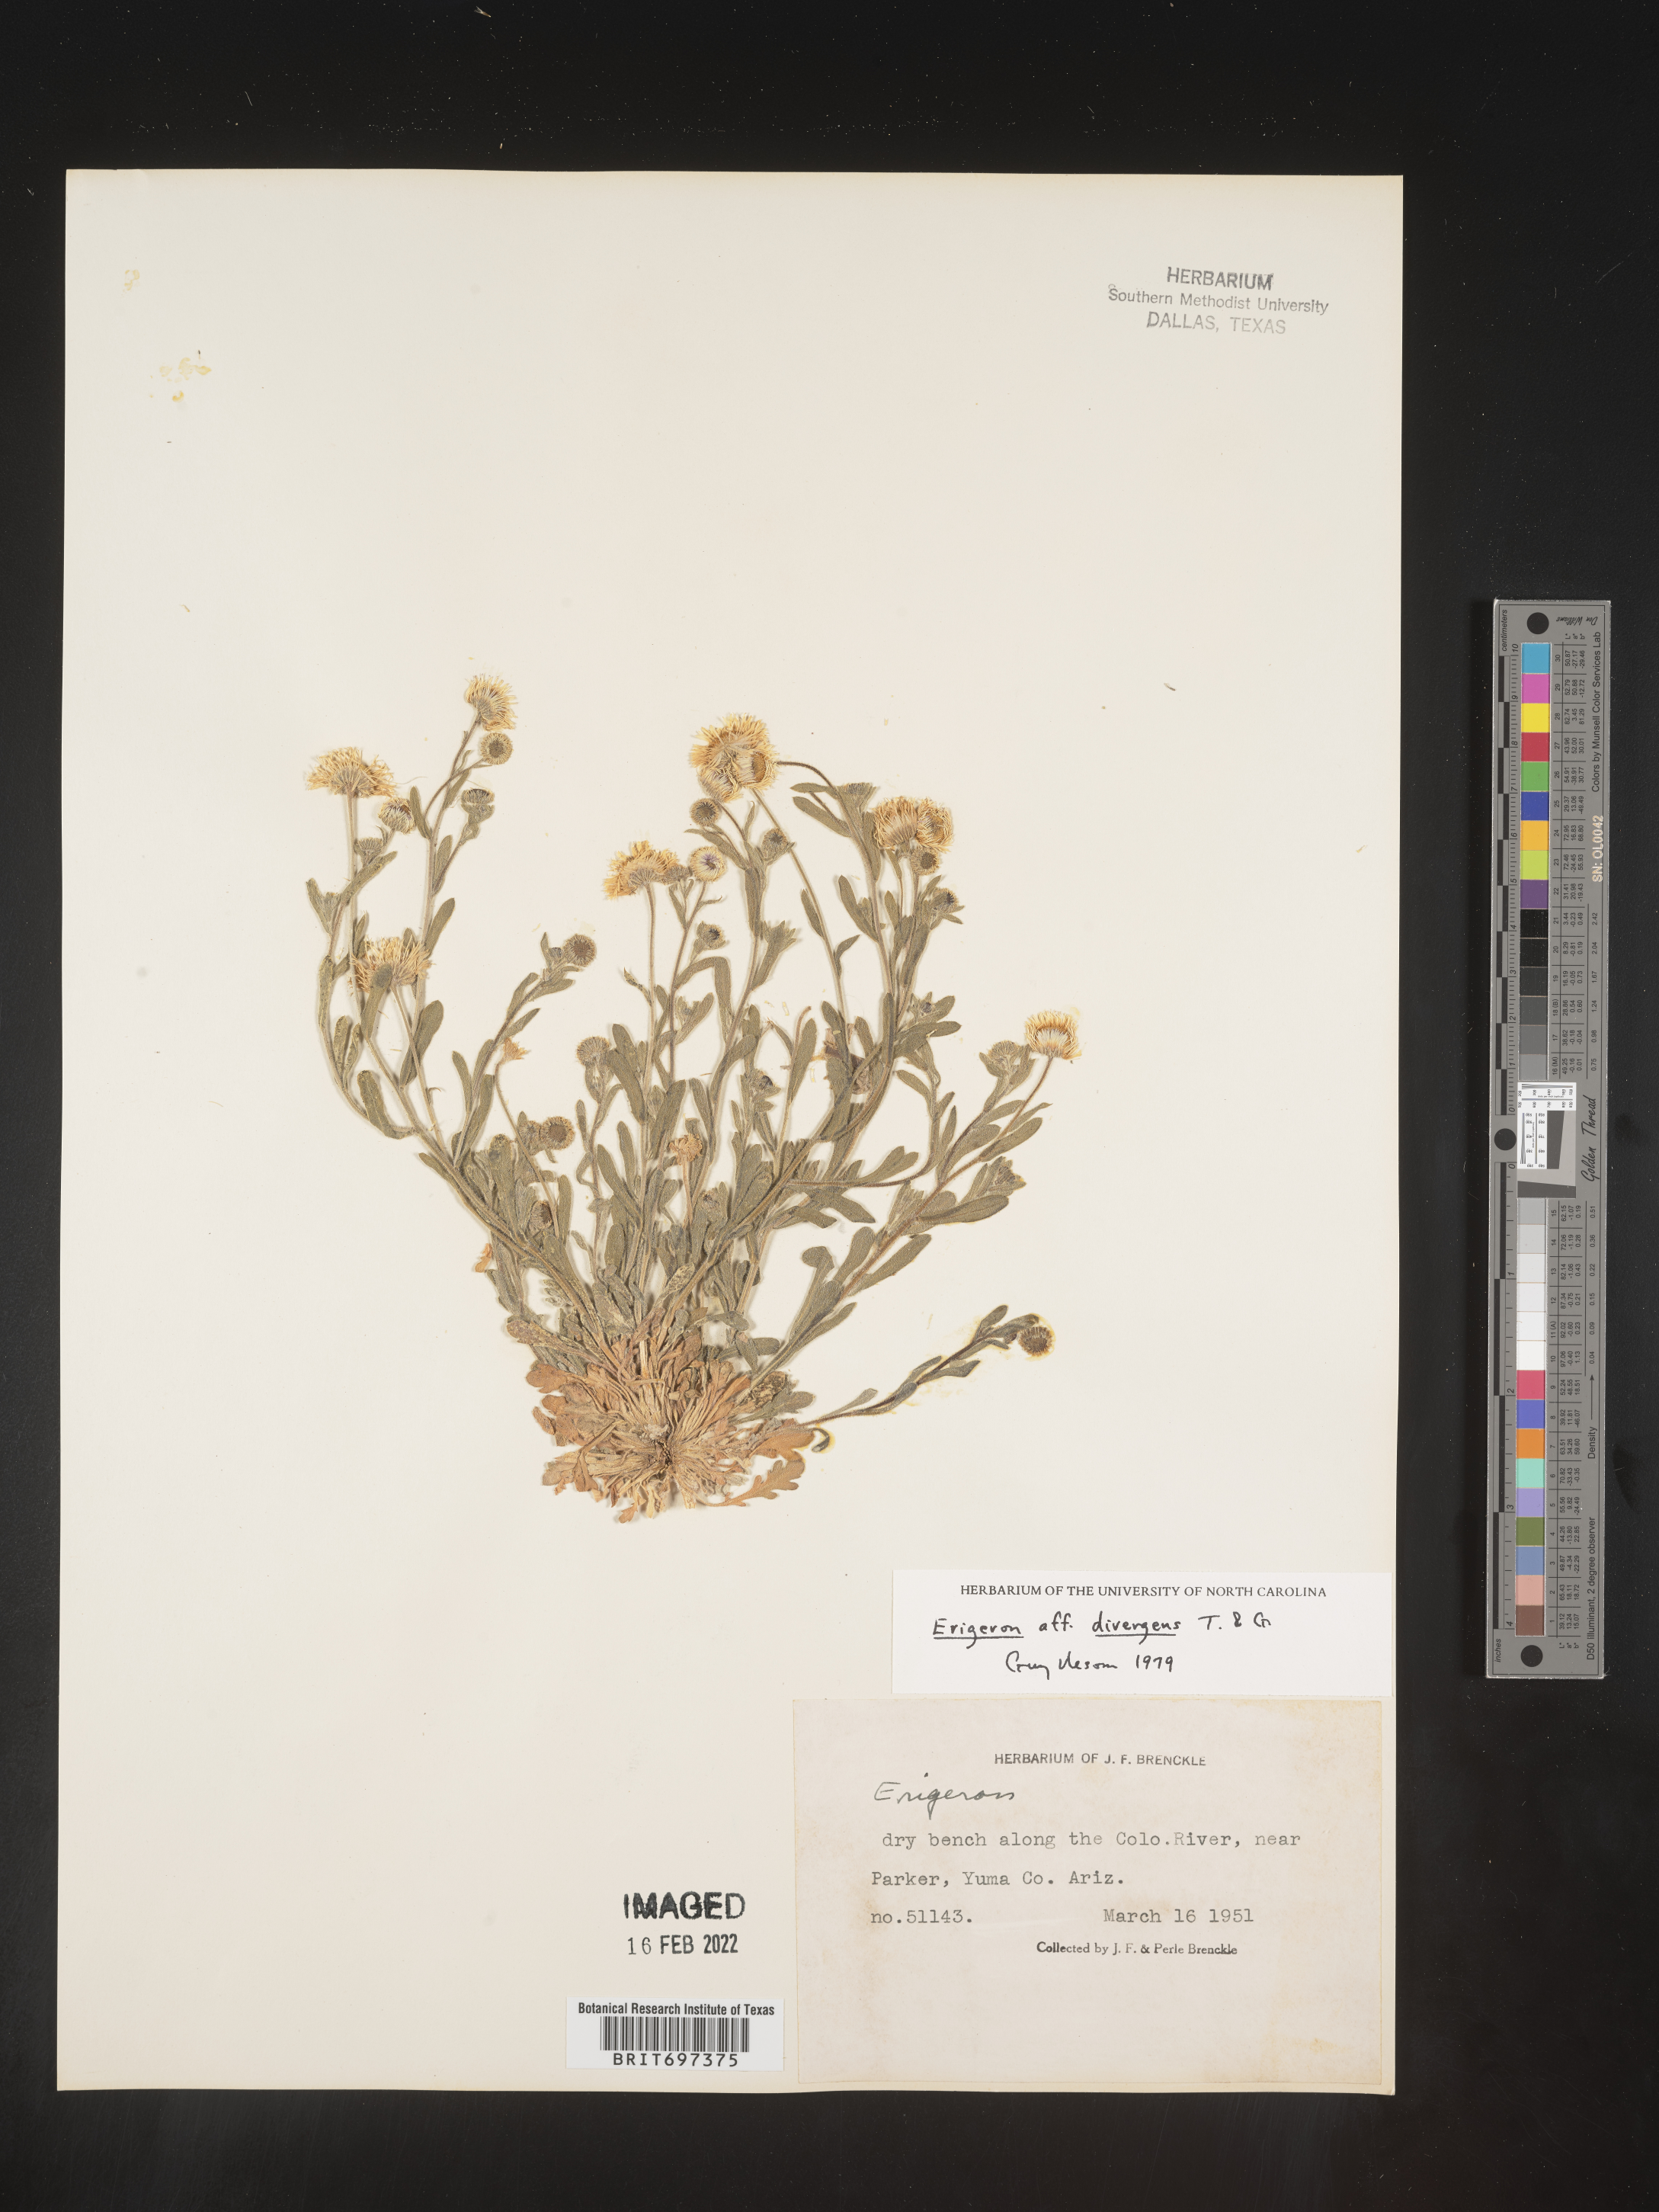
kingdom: Plantae
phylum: Tracheophyta
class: Magnoliopsida
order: Asterales
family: Asteraceae
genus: Erigeron
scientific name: Erigeron divergens
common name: Diffuse fleabane
